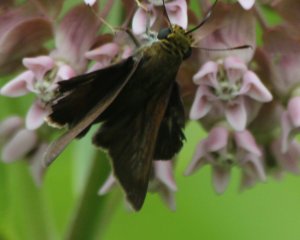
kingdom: Animalia
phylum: Arthropoda
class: Insecta
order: Lepidoptera
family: Hesperiidae
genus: Euphyes
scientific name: Euphyes vestris
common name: Dun Skipper
